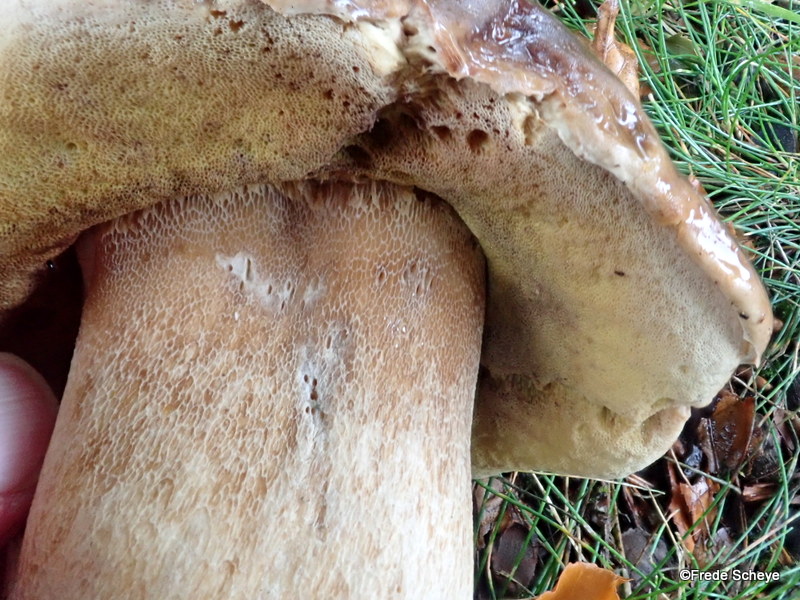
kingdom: Fungi
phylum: Basidiomycota
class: Agaricomycetes
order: Boletales
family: Boletaceae
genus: Boletus
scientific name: Boletus edulis
